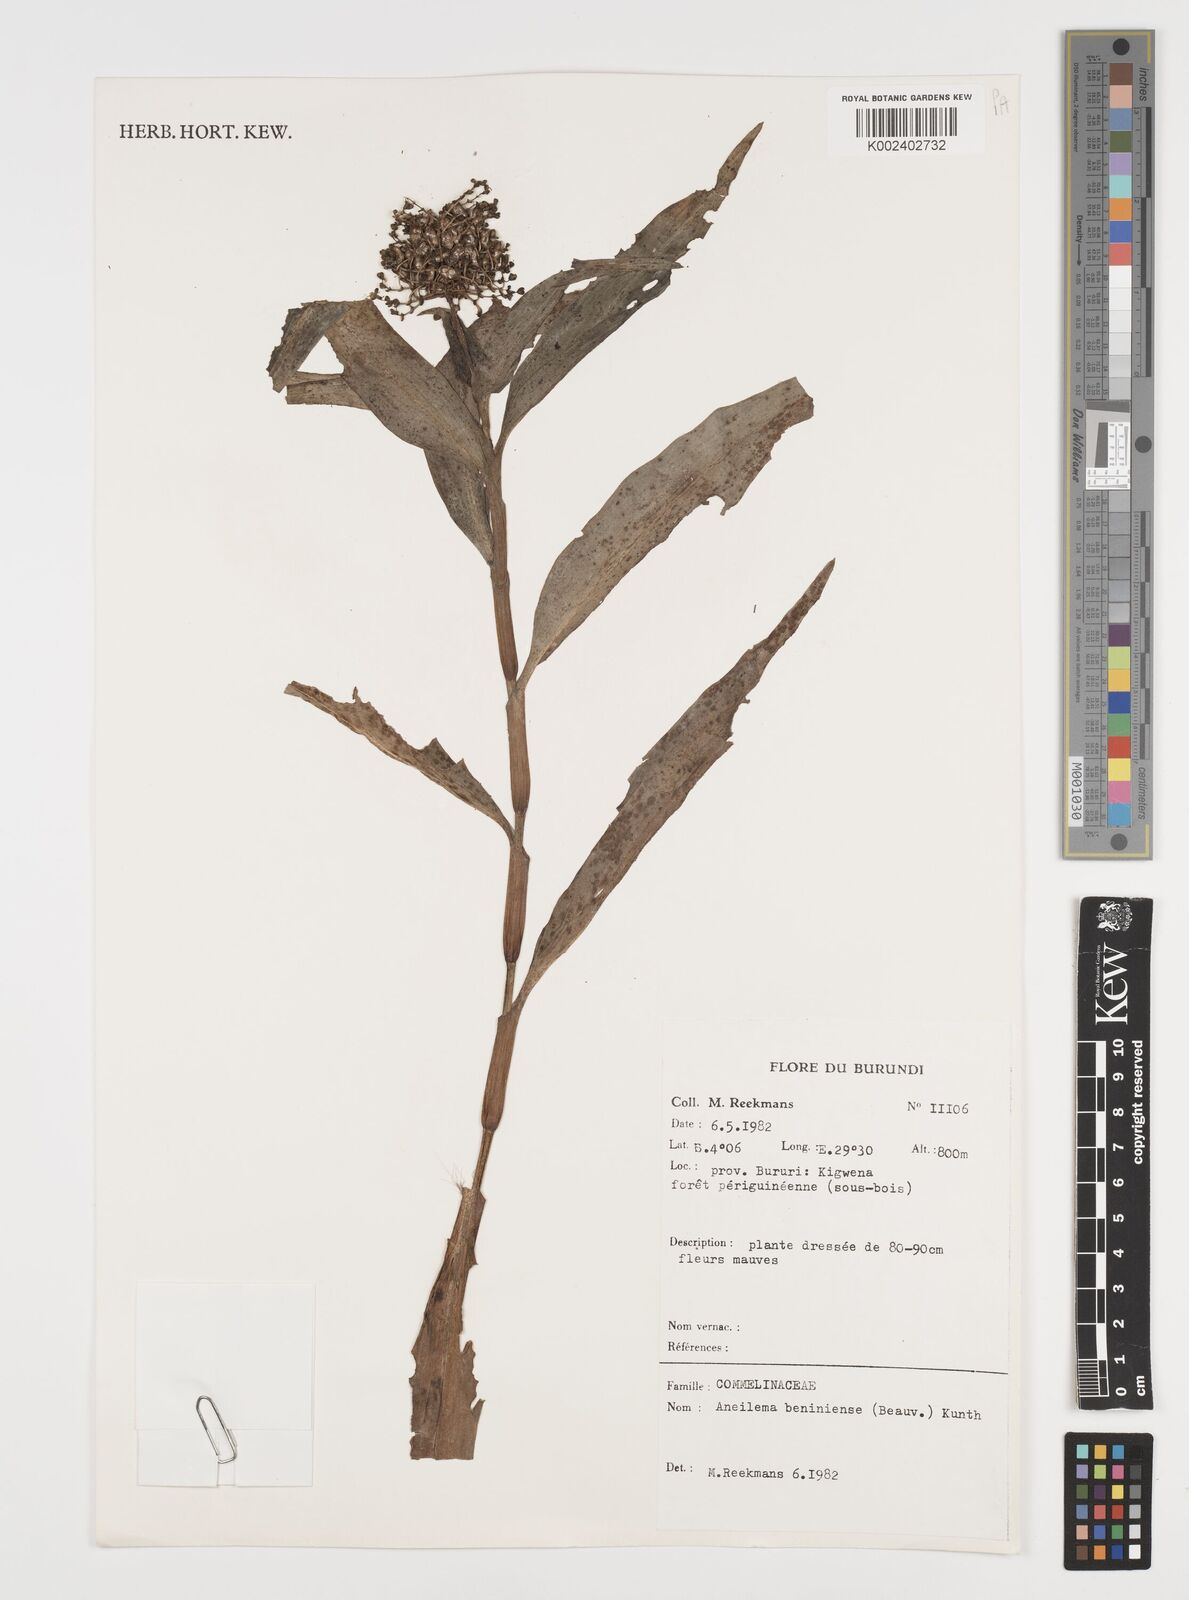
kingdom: Plantae
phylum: Tracheophyta
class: Liliopsida
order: Commelinales
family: Commelinaceae
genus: Aneilema
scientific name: Aneilema beniniense
